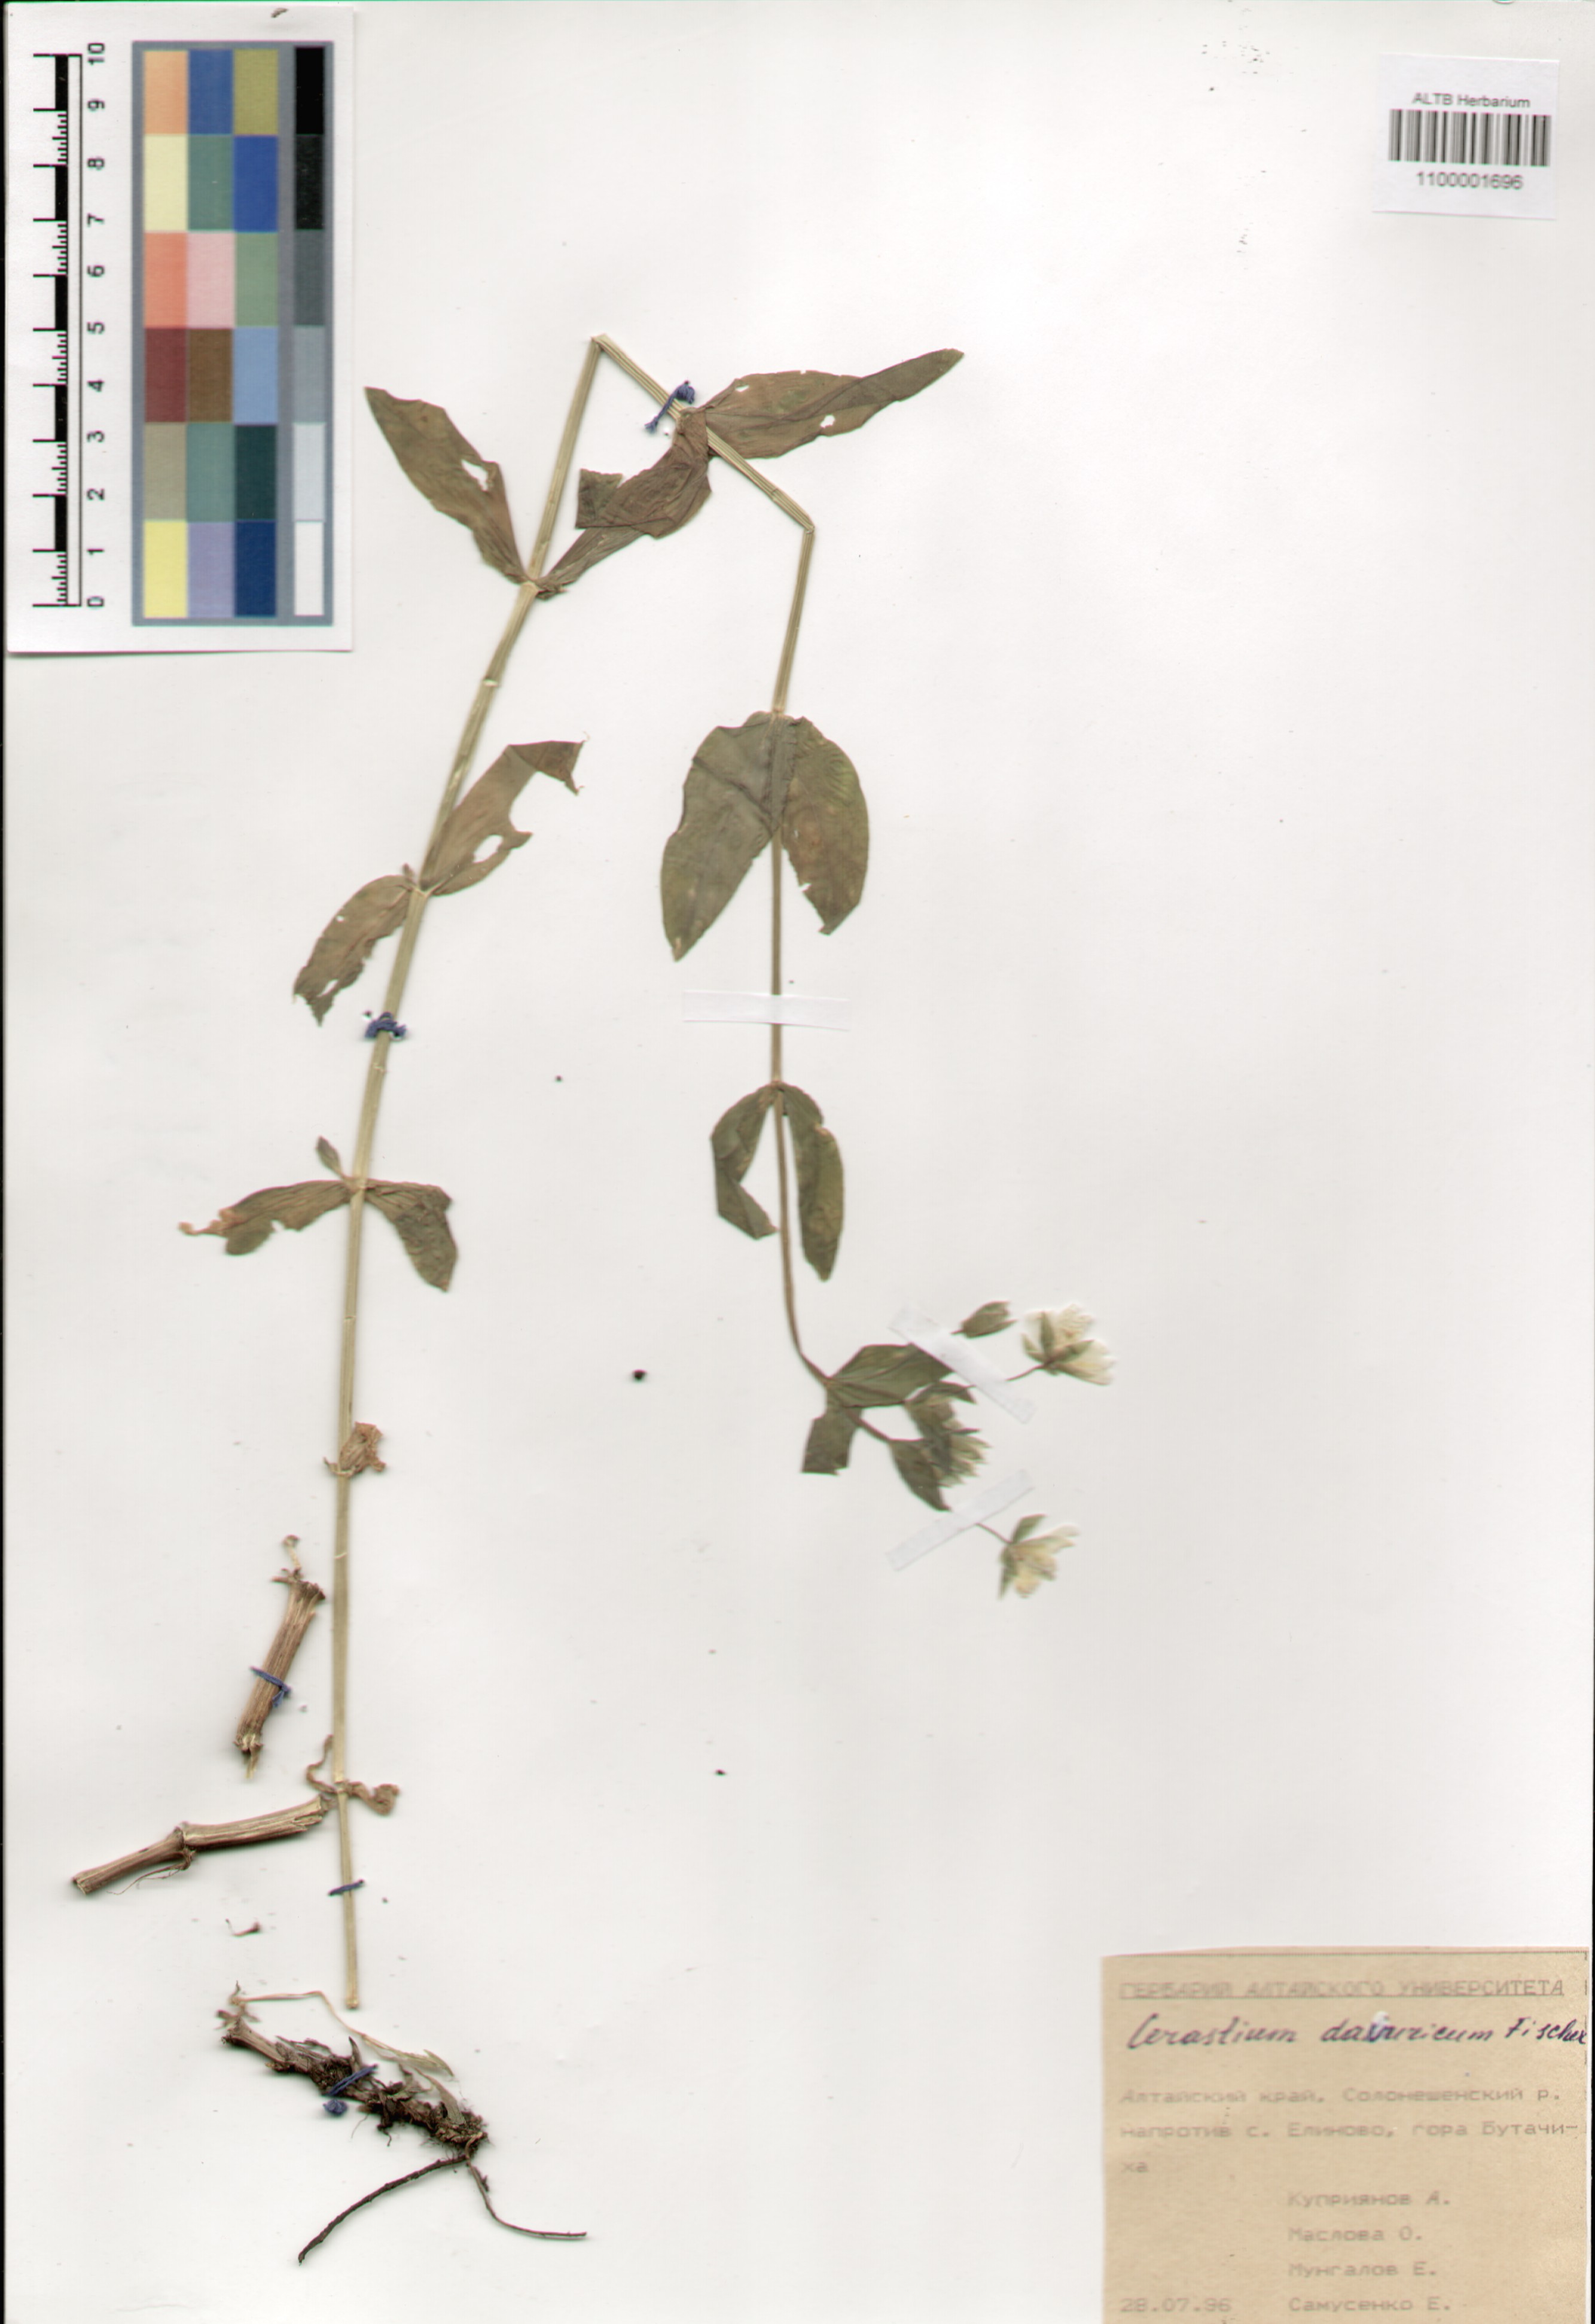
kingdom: Plantae
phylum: Tracheophyta
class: Magnoliopsida
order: Caryophyllales
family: Caryophyllaceae
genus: Dichodon
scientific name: Dichodon davuricum
